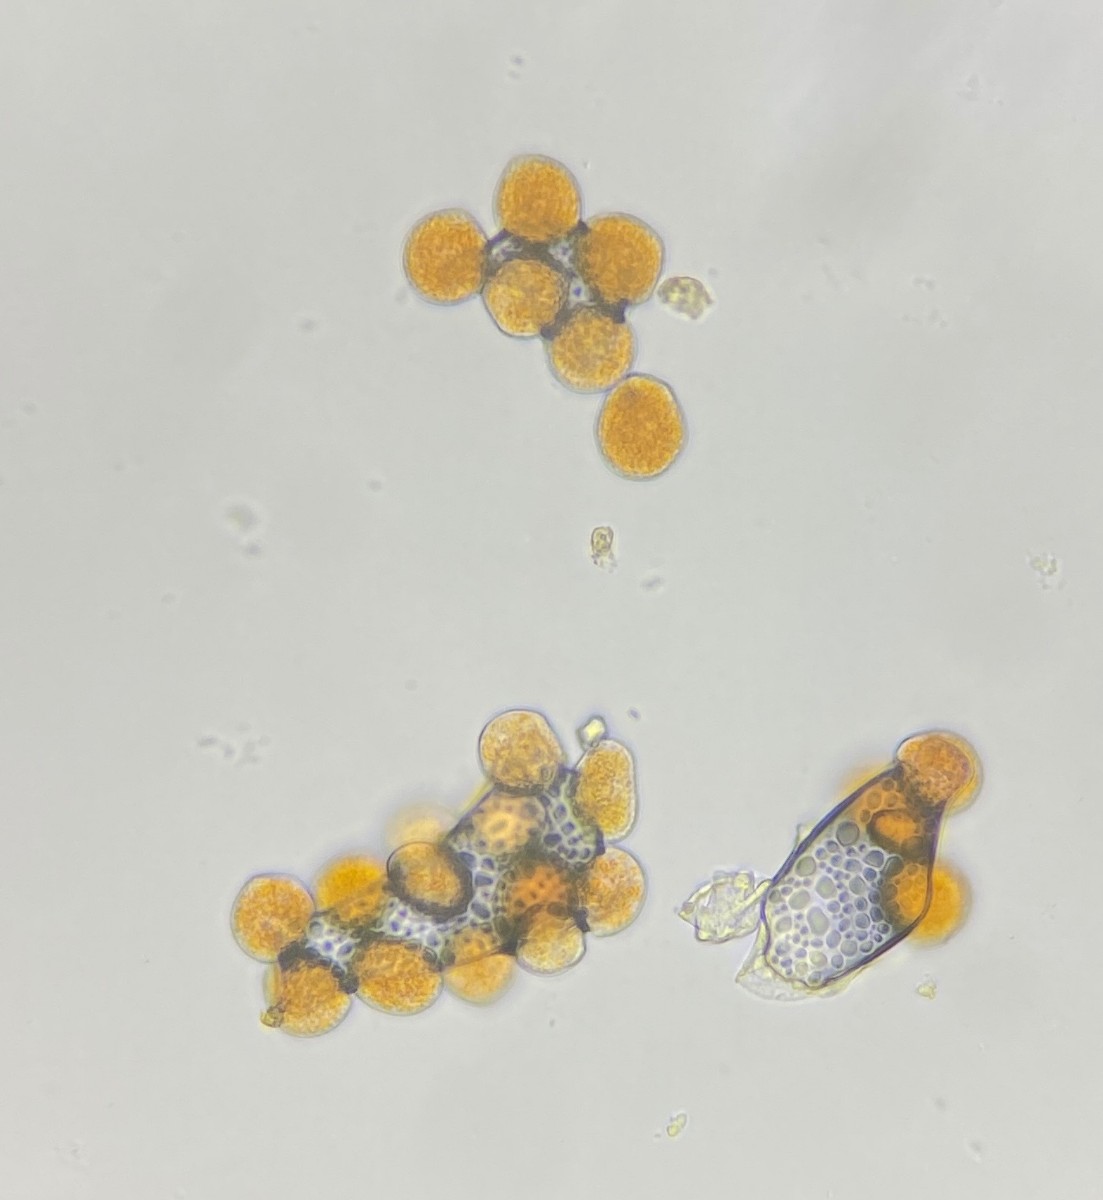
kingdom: Fungi
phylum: Basidiomycota
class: Pucciniomycetes
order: Pucciniales
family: Phragmidiaceae
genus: Phragmidium
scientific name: Phragmidium potentillae
